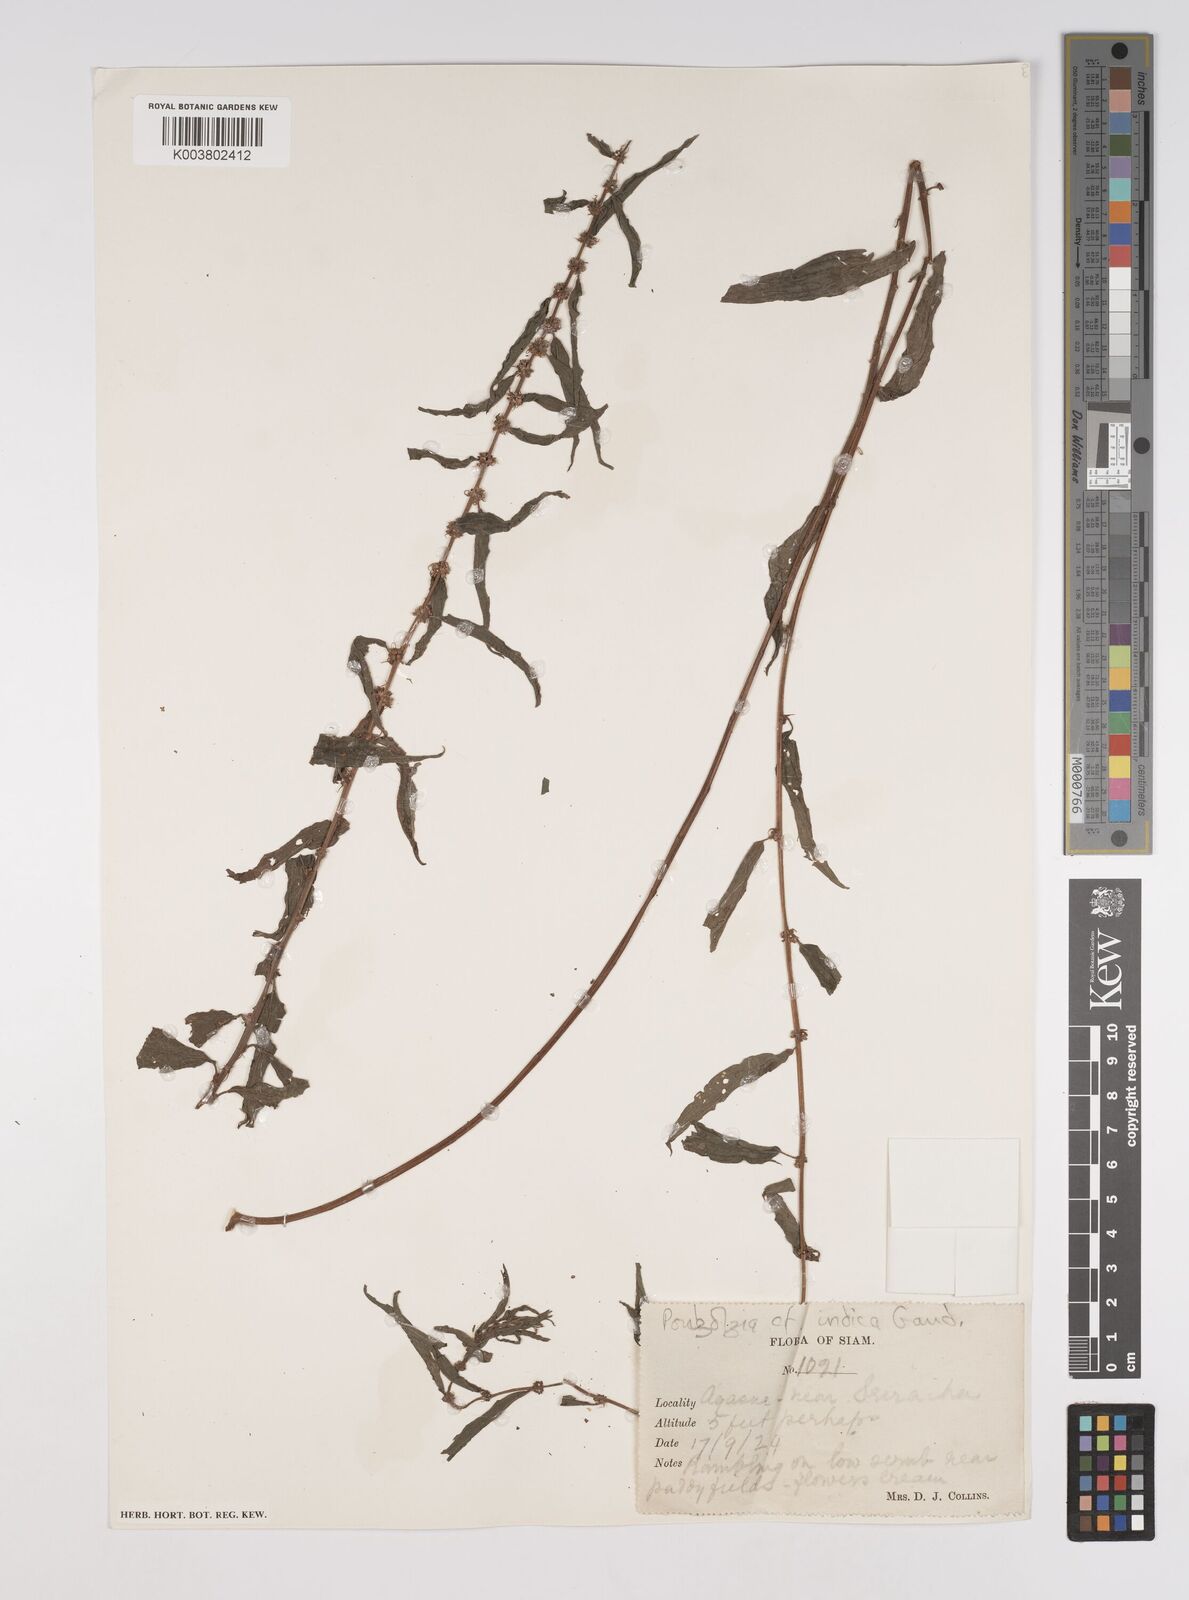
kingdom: Plantae
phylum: Tracheophyta
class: Magnoliopsida
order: Rosales
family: Urticaceae
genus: Pouzolzia
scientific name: Pouzolzia zeylanica
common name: Graceful pouzolzsbush
